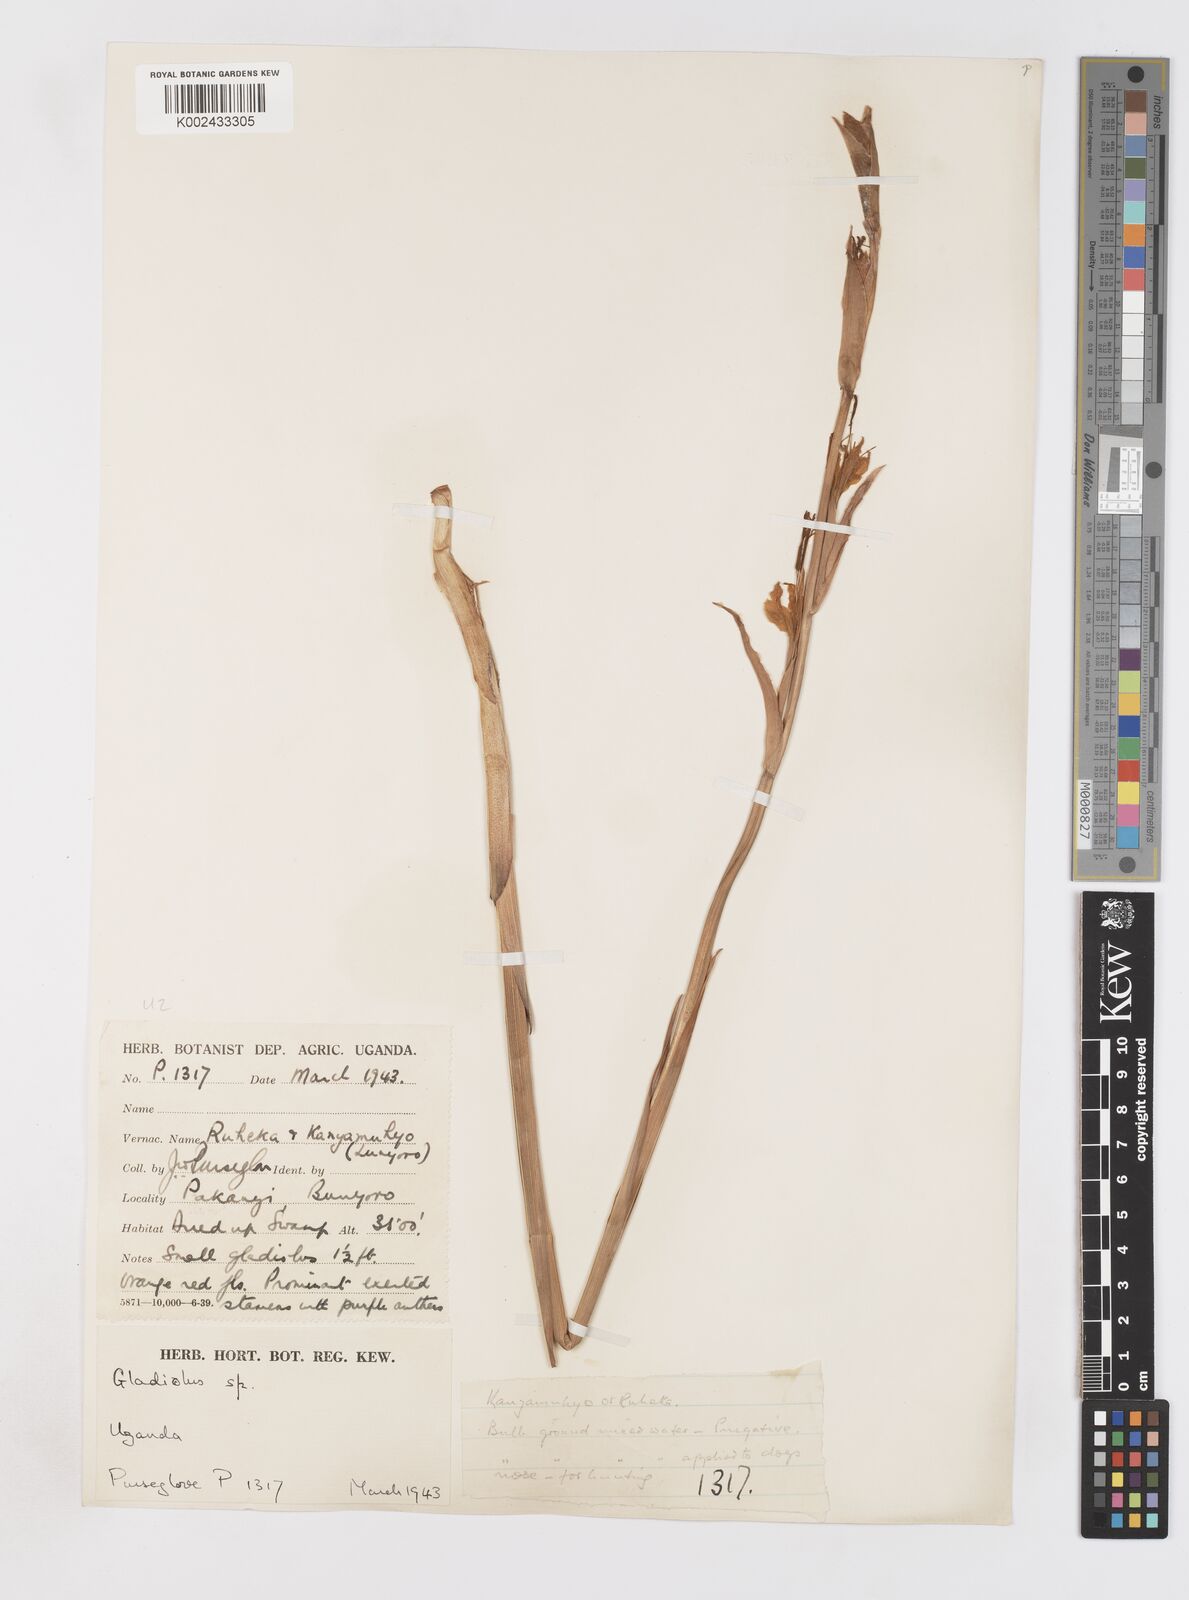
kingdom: Plantae
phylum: Tracheophyta
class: Liliopsida
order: Asparagales
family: Iridaceae
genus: Gladiolus
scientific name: Gladiolus dalenii
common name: Cornflag
